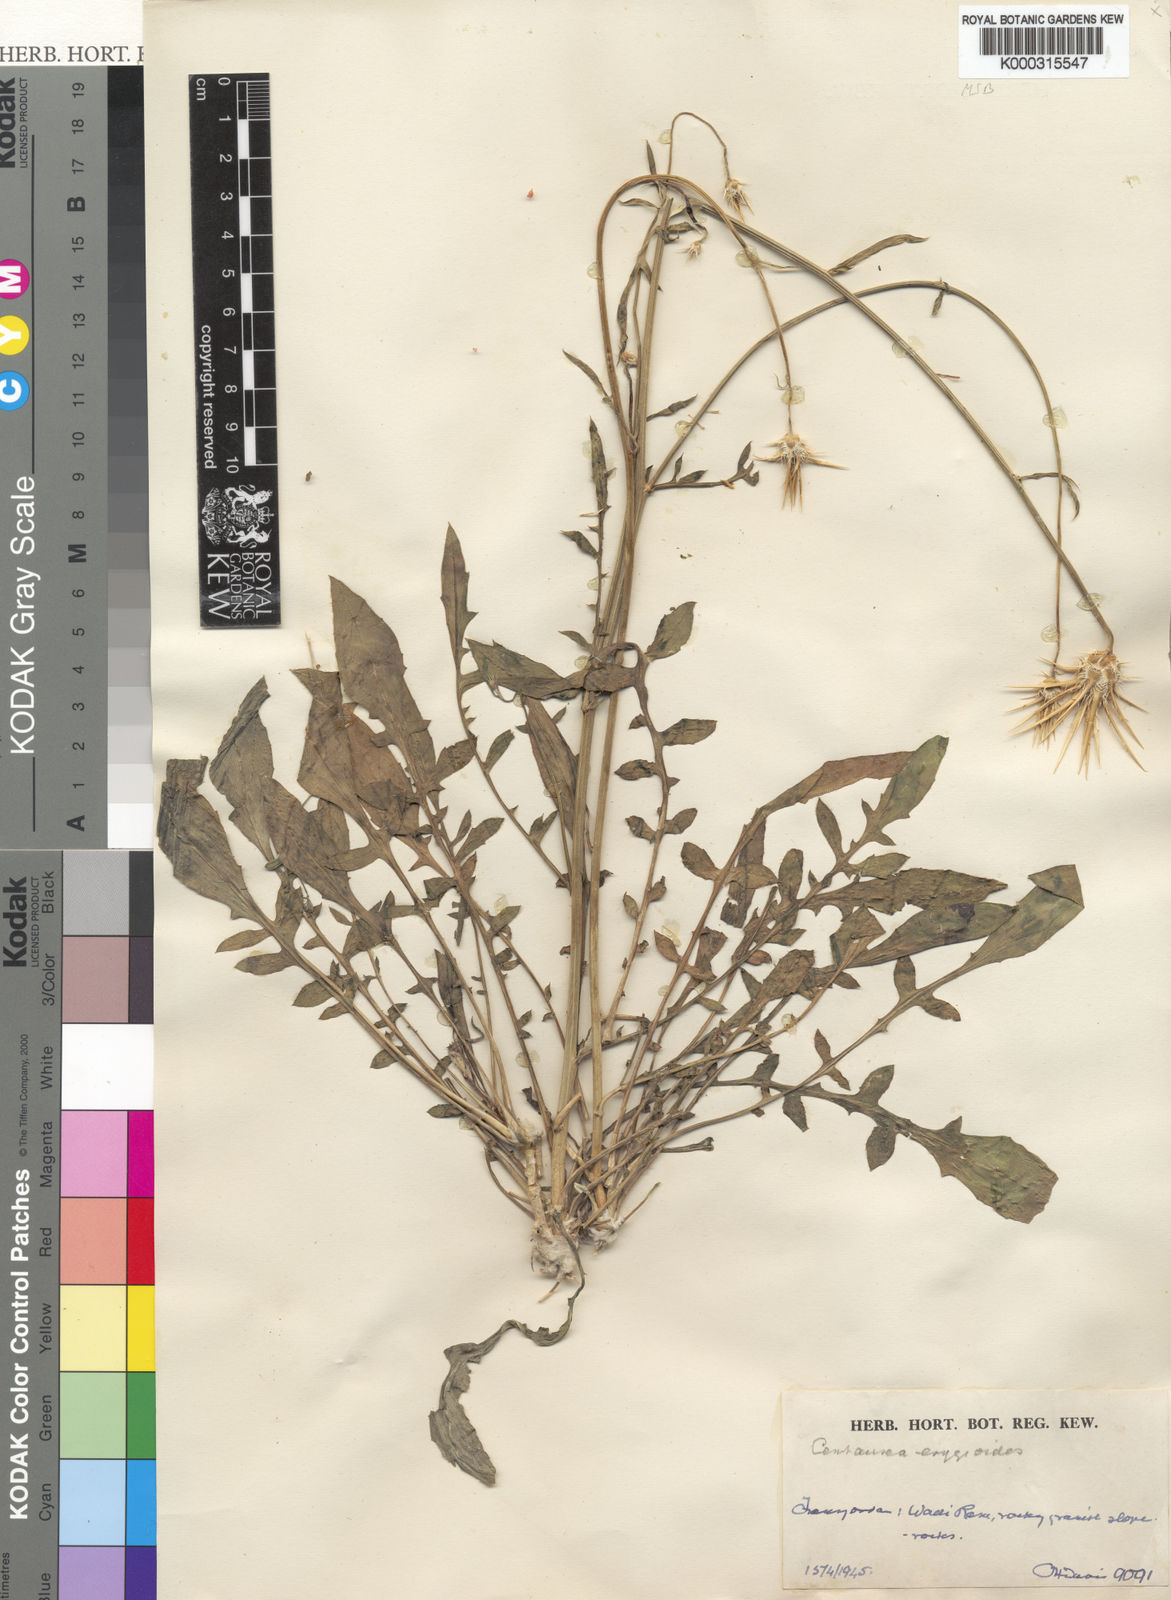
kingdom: Plantae
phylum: Tracheophyta
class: Magnoliopsida
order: Asterales
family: Asteraceae
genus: Centaurea
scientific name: Centaurea eryngioides
